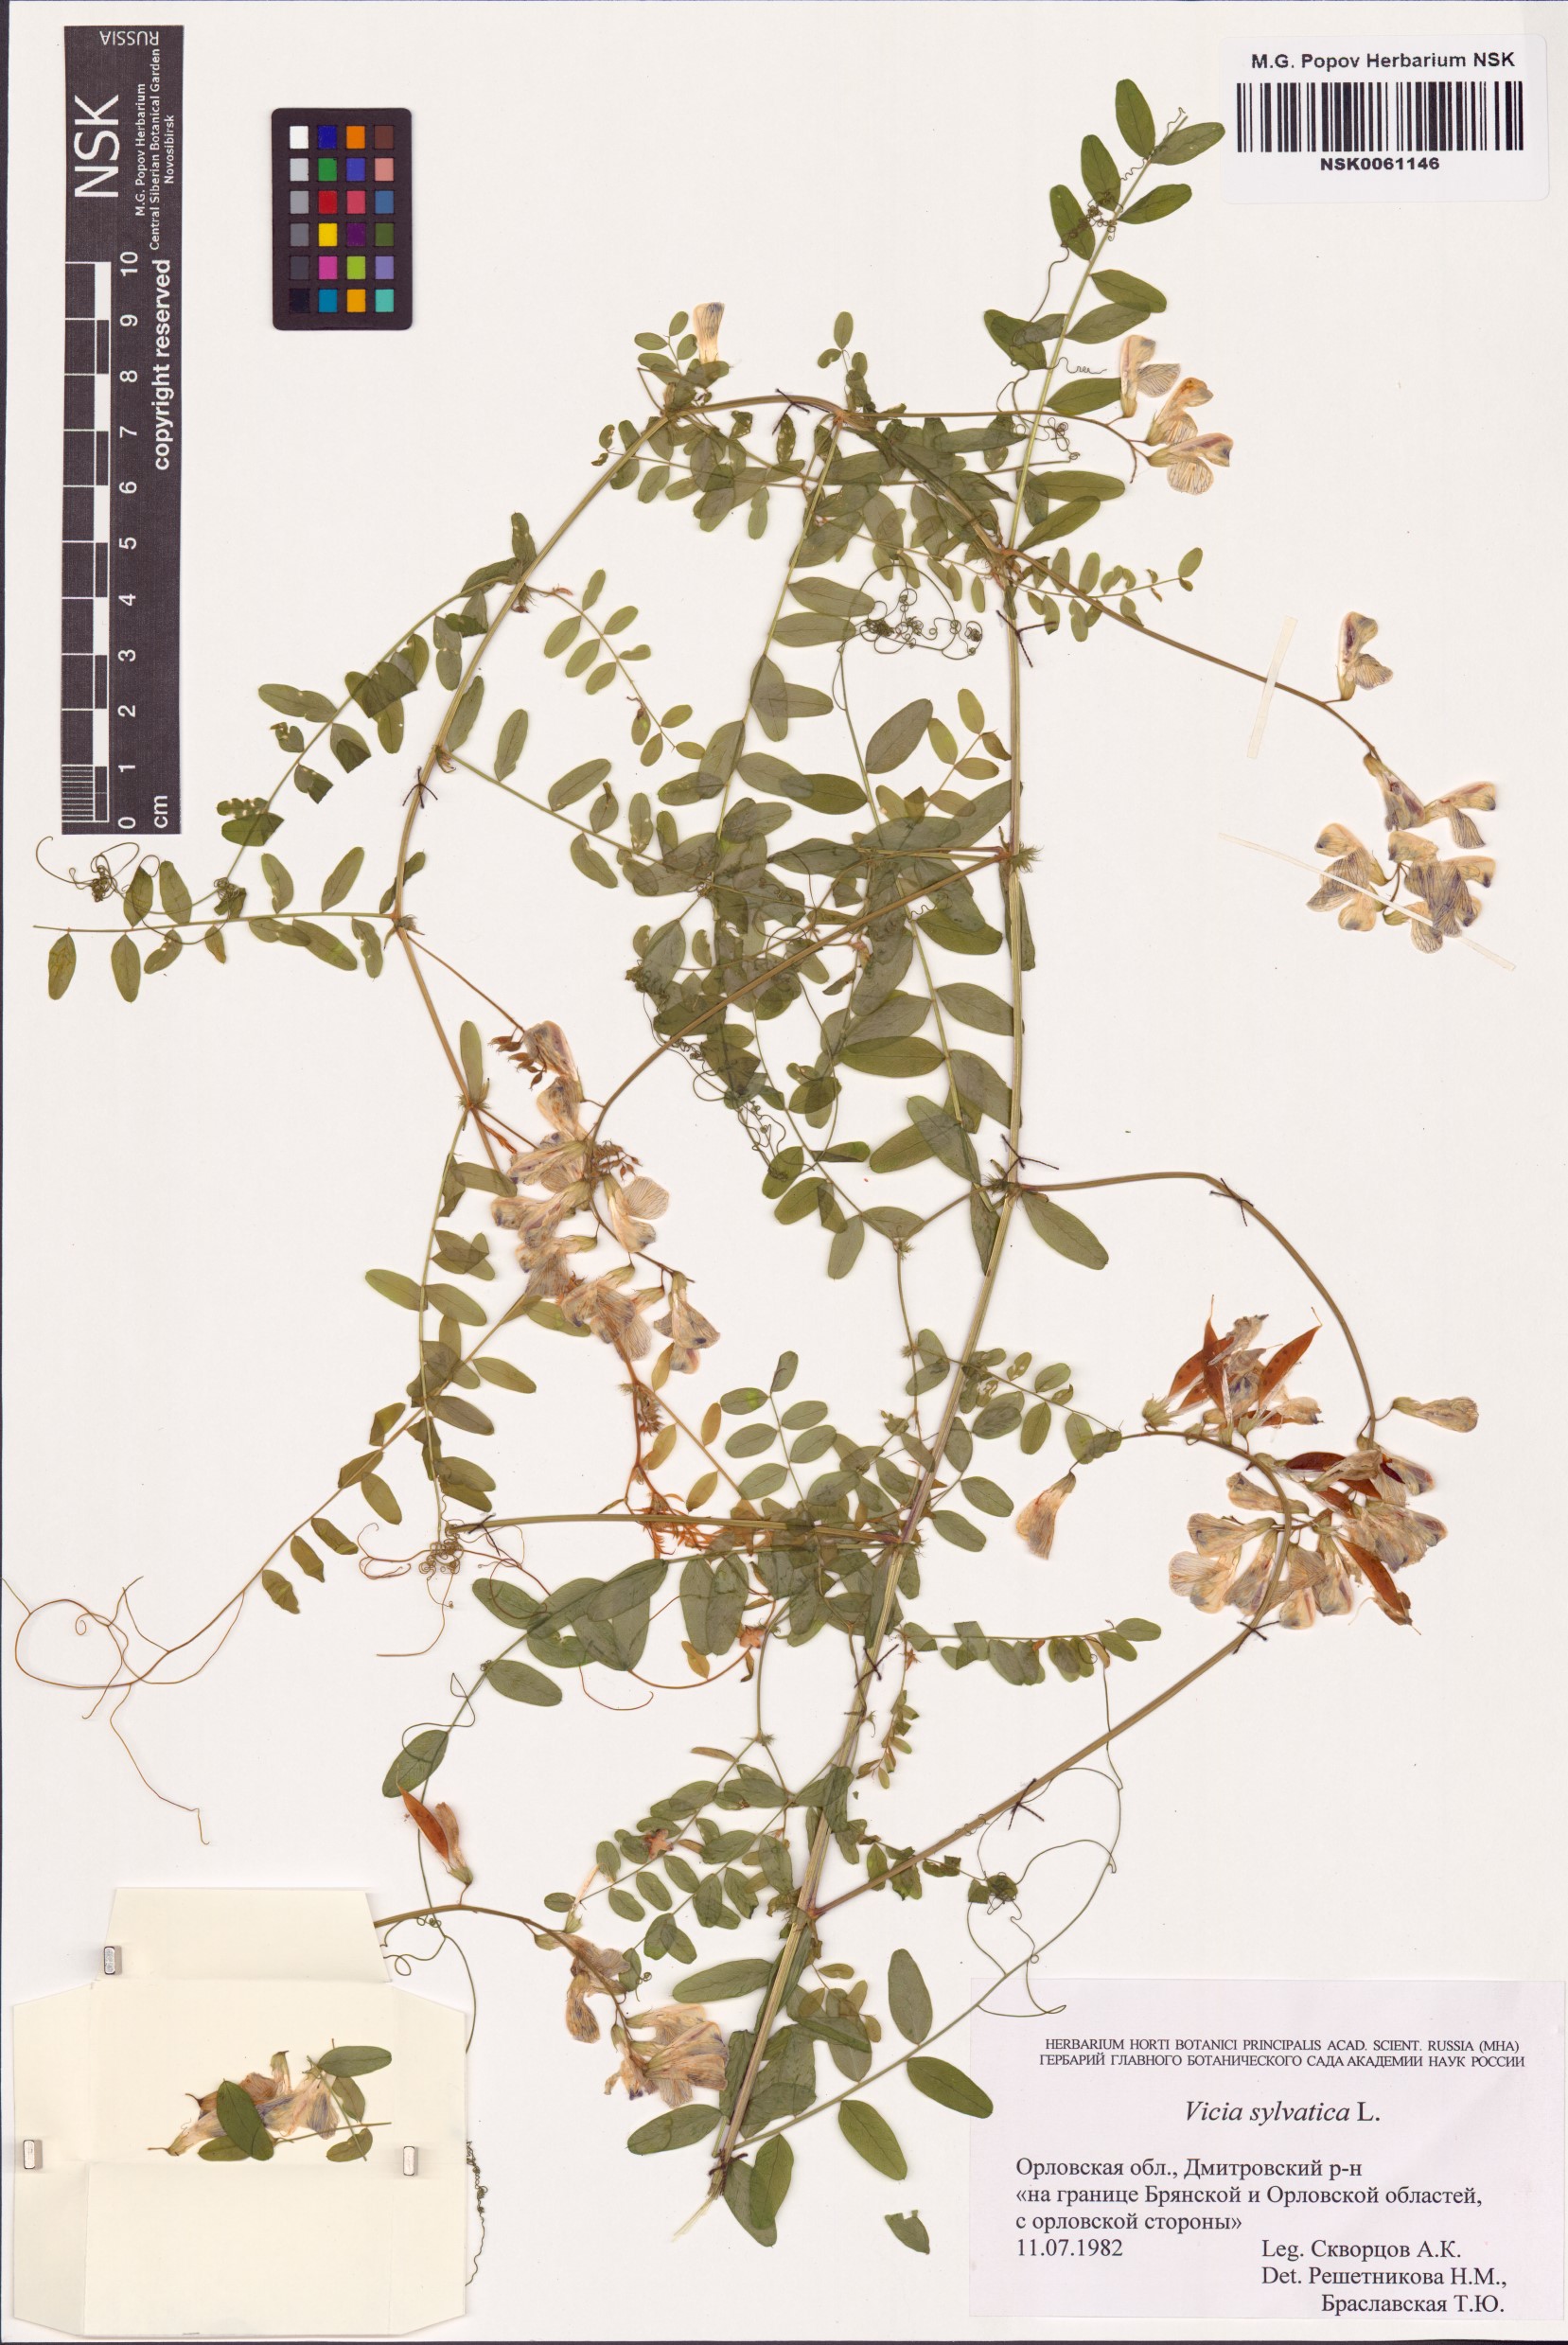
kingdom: Plantae
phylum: Tracheophyta
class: Magnoliopsida
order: Fabales
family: Fabaceae
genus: Vicia
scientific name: Vicia sylvatica
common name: Wood vetch
